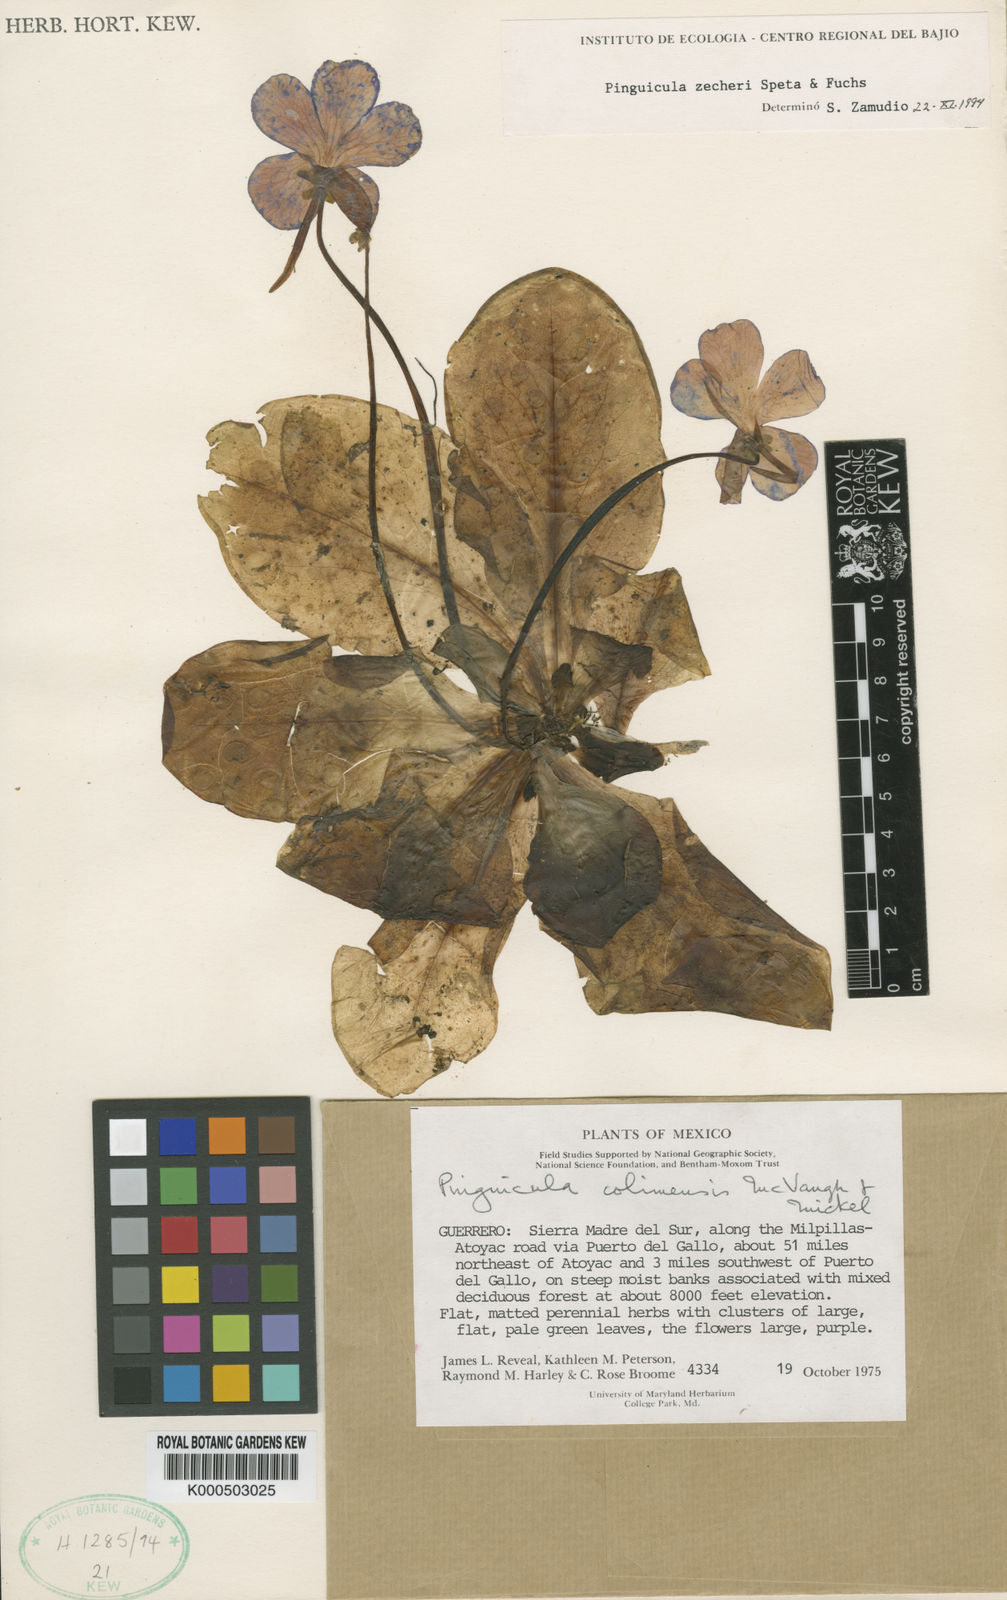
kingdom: Plantae
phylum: Tracheophyta
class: Magnoliopsida
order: Lamiales
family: Lentibulariaceae
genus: Pinguicula
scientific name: Pinguicula zecheri
